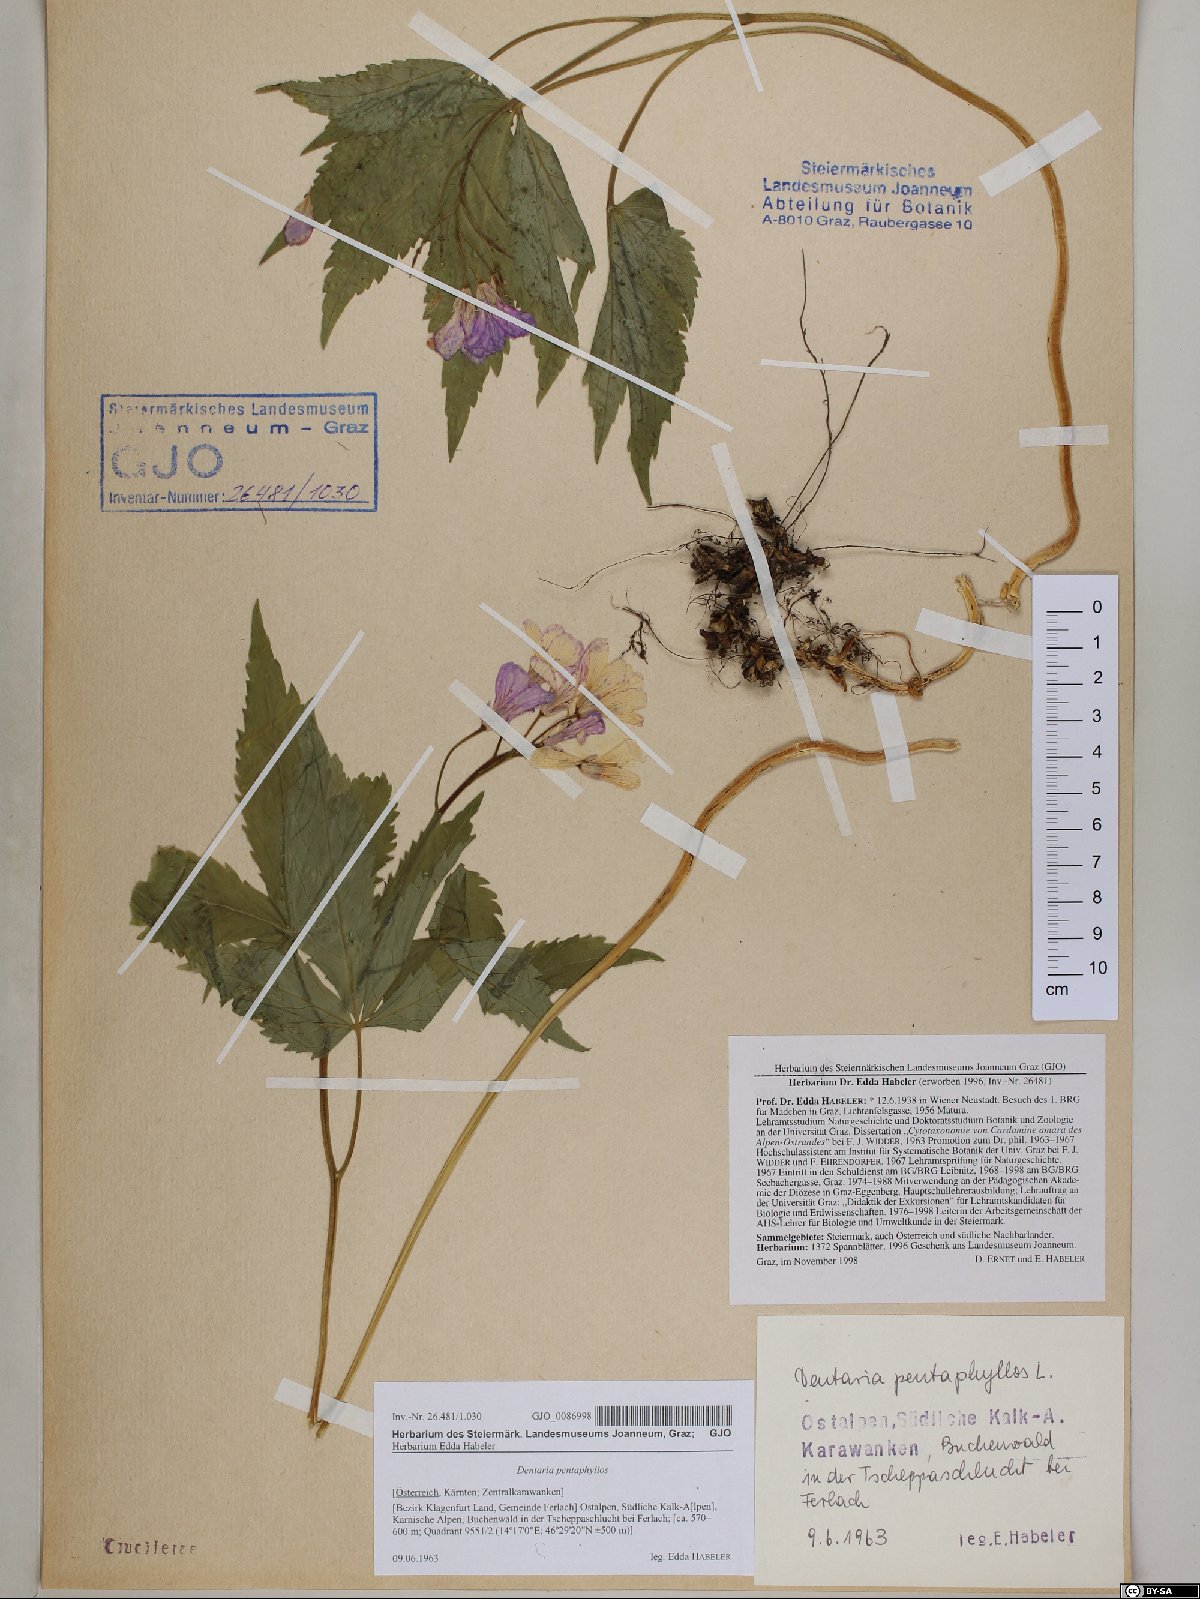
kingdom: Plantae
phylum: Tracheophyta
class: Magnoliopsida
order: Brassicales
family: Brassicaceae
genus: Cardamine
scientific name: Cardamine pentaphyllos
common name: Five-leaflet bitter-cress
